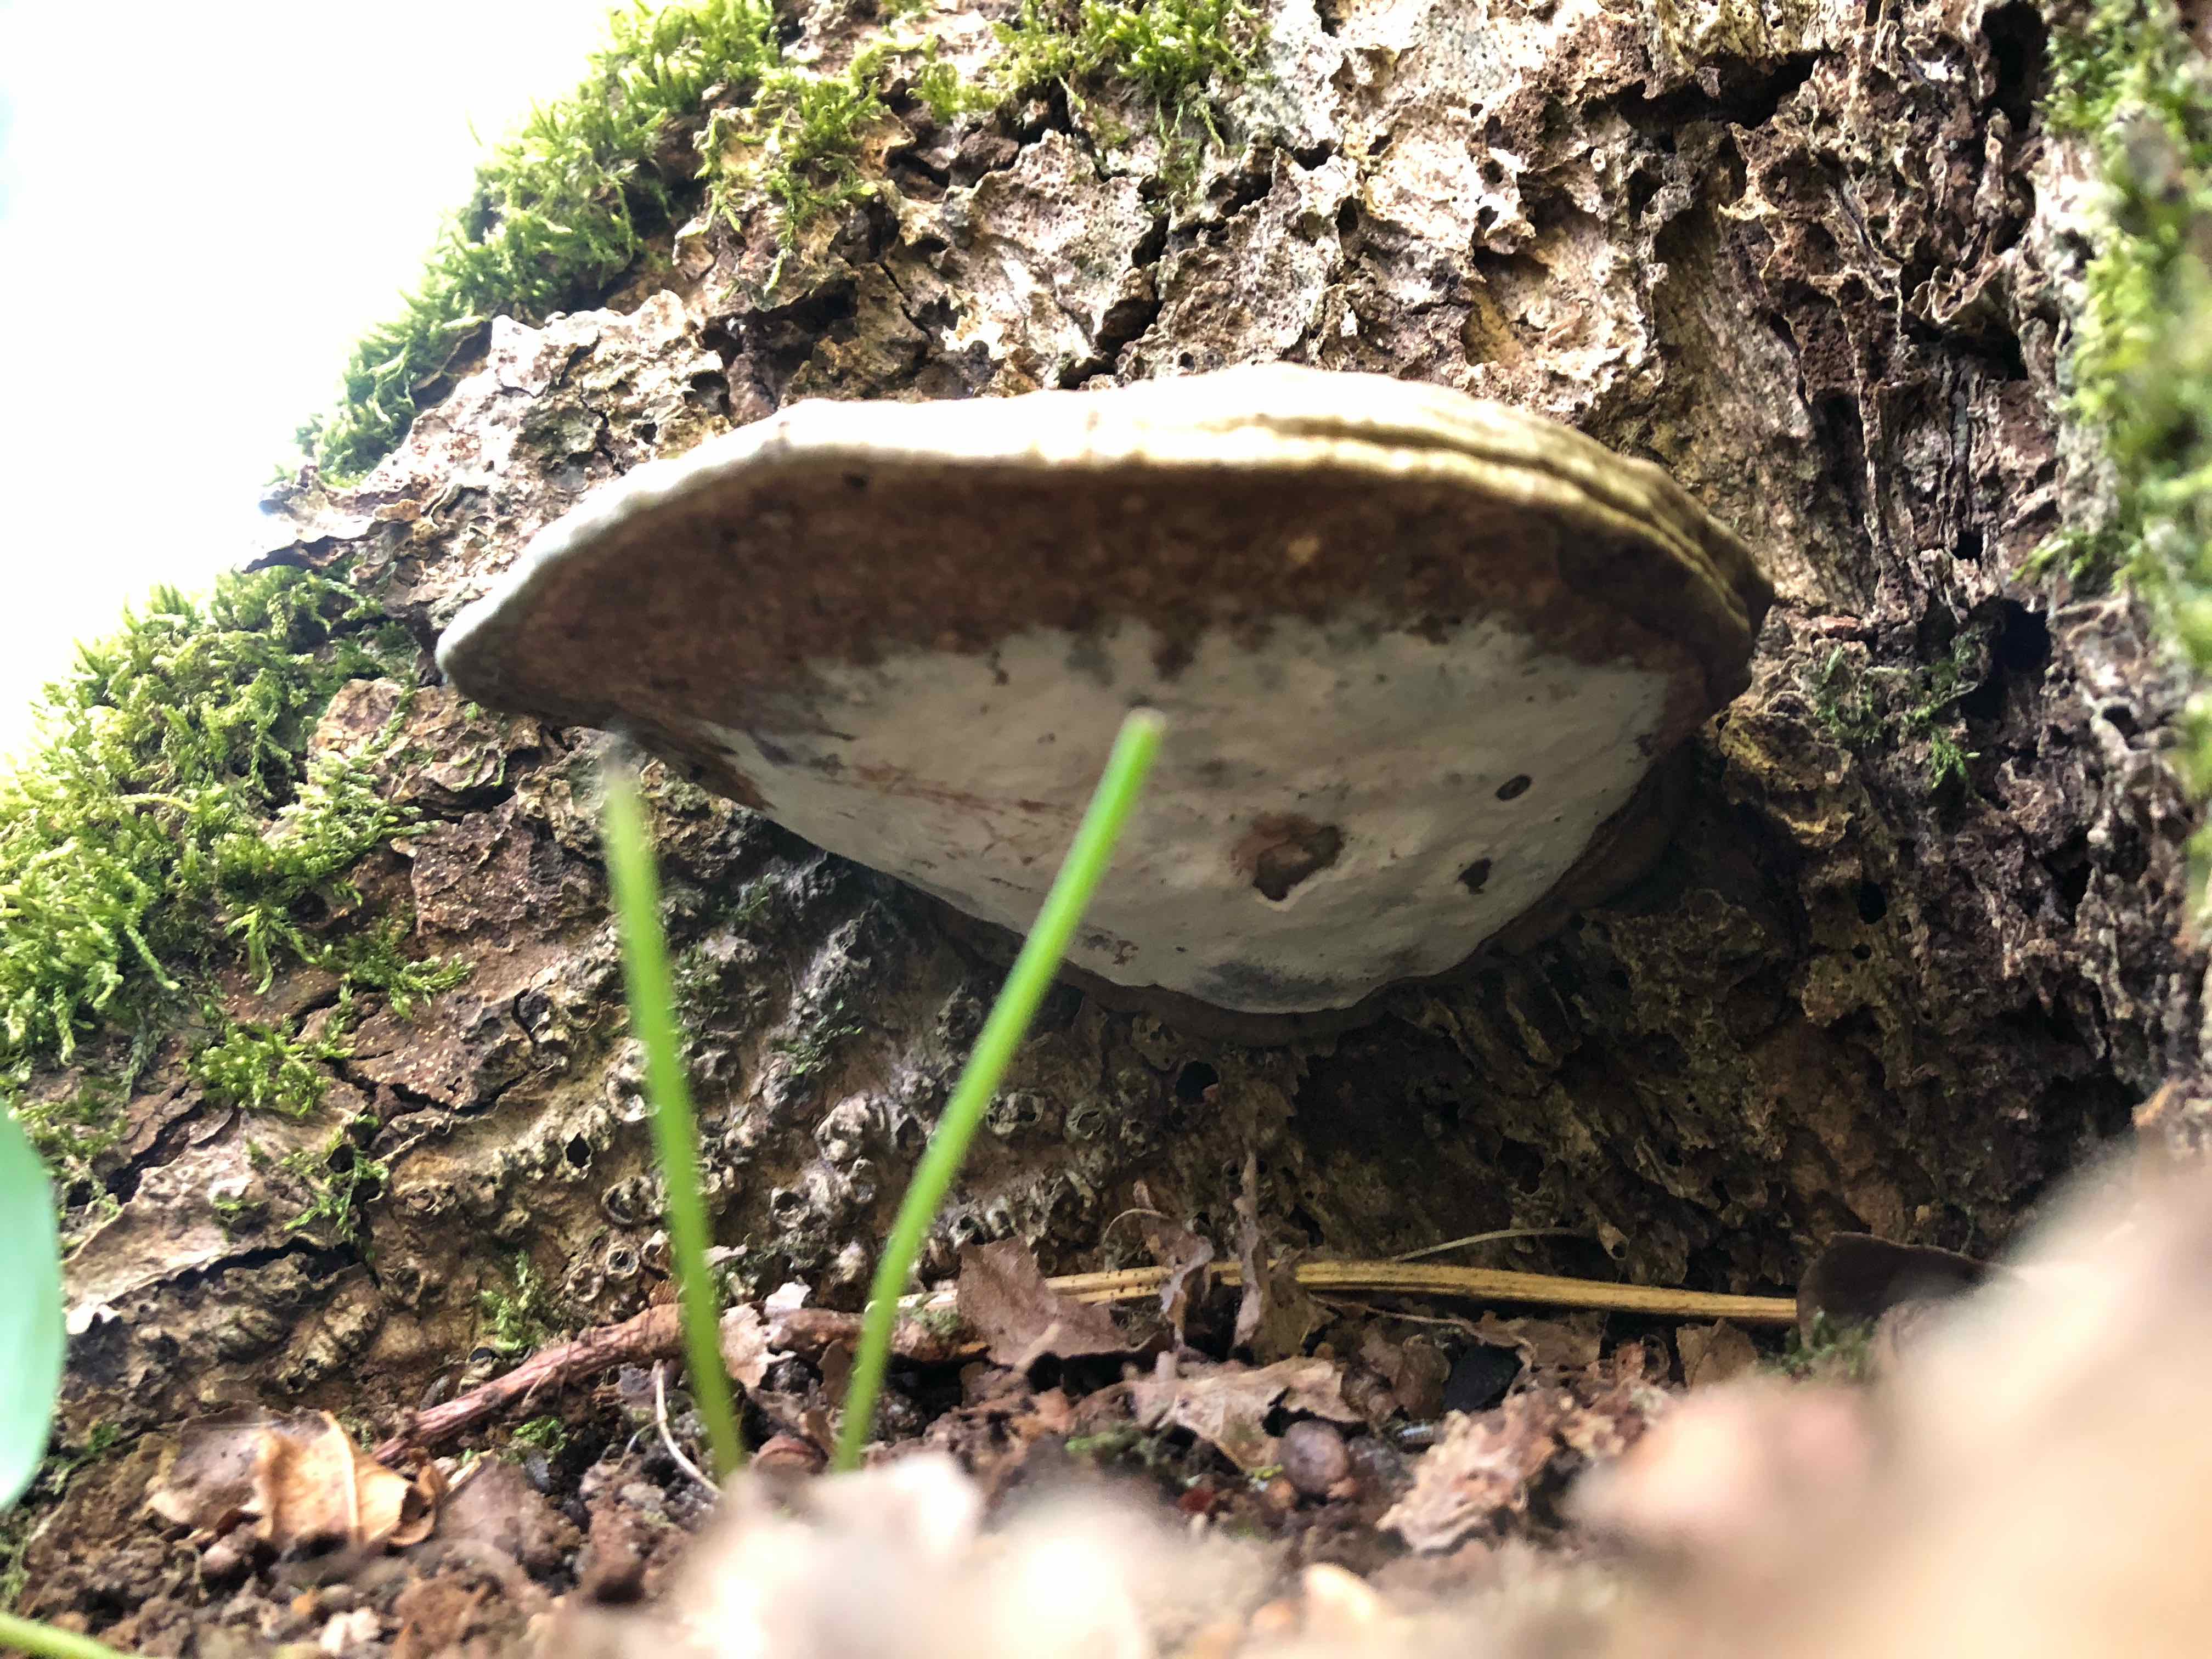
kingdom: Fungi
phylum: Basidiomycota
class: Agaricomycetes
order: Polyporales
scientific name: Polyporales
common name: poresvampordenen
